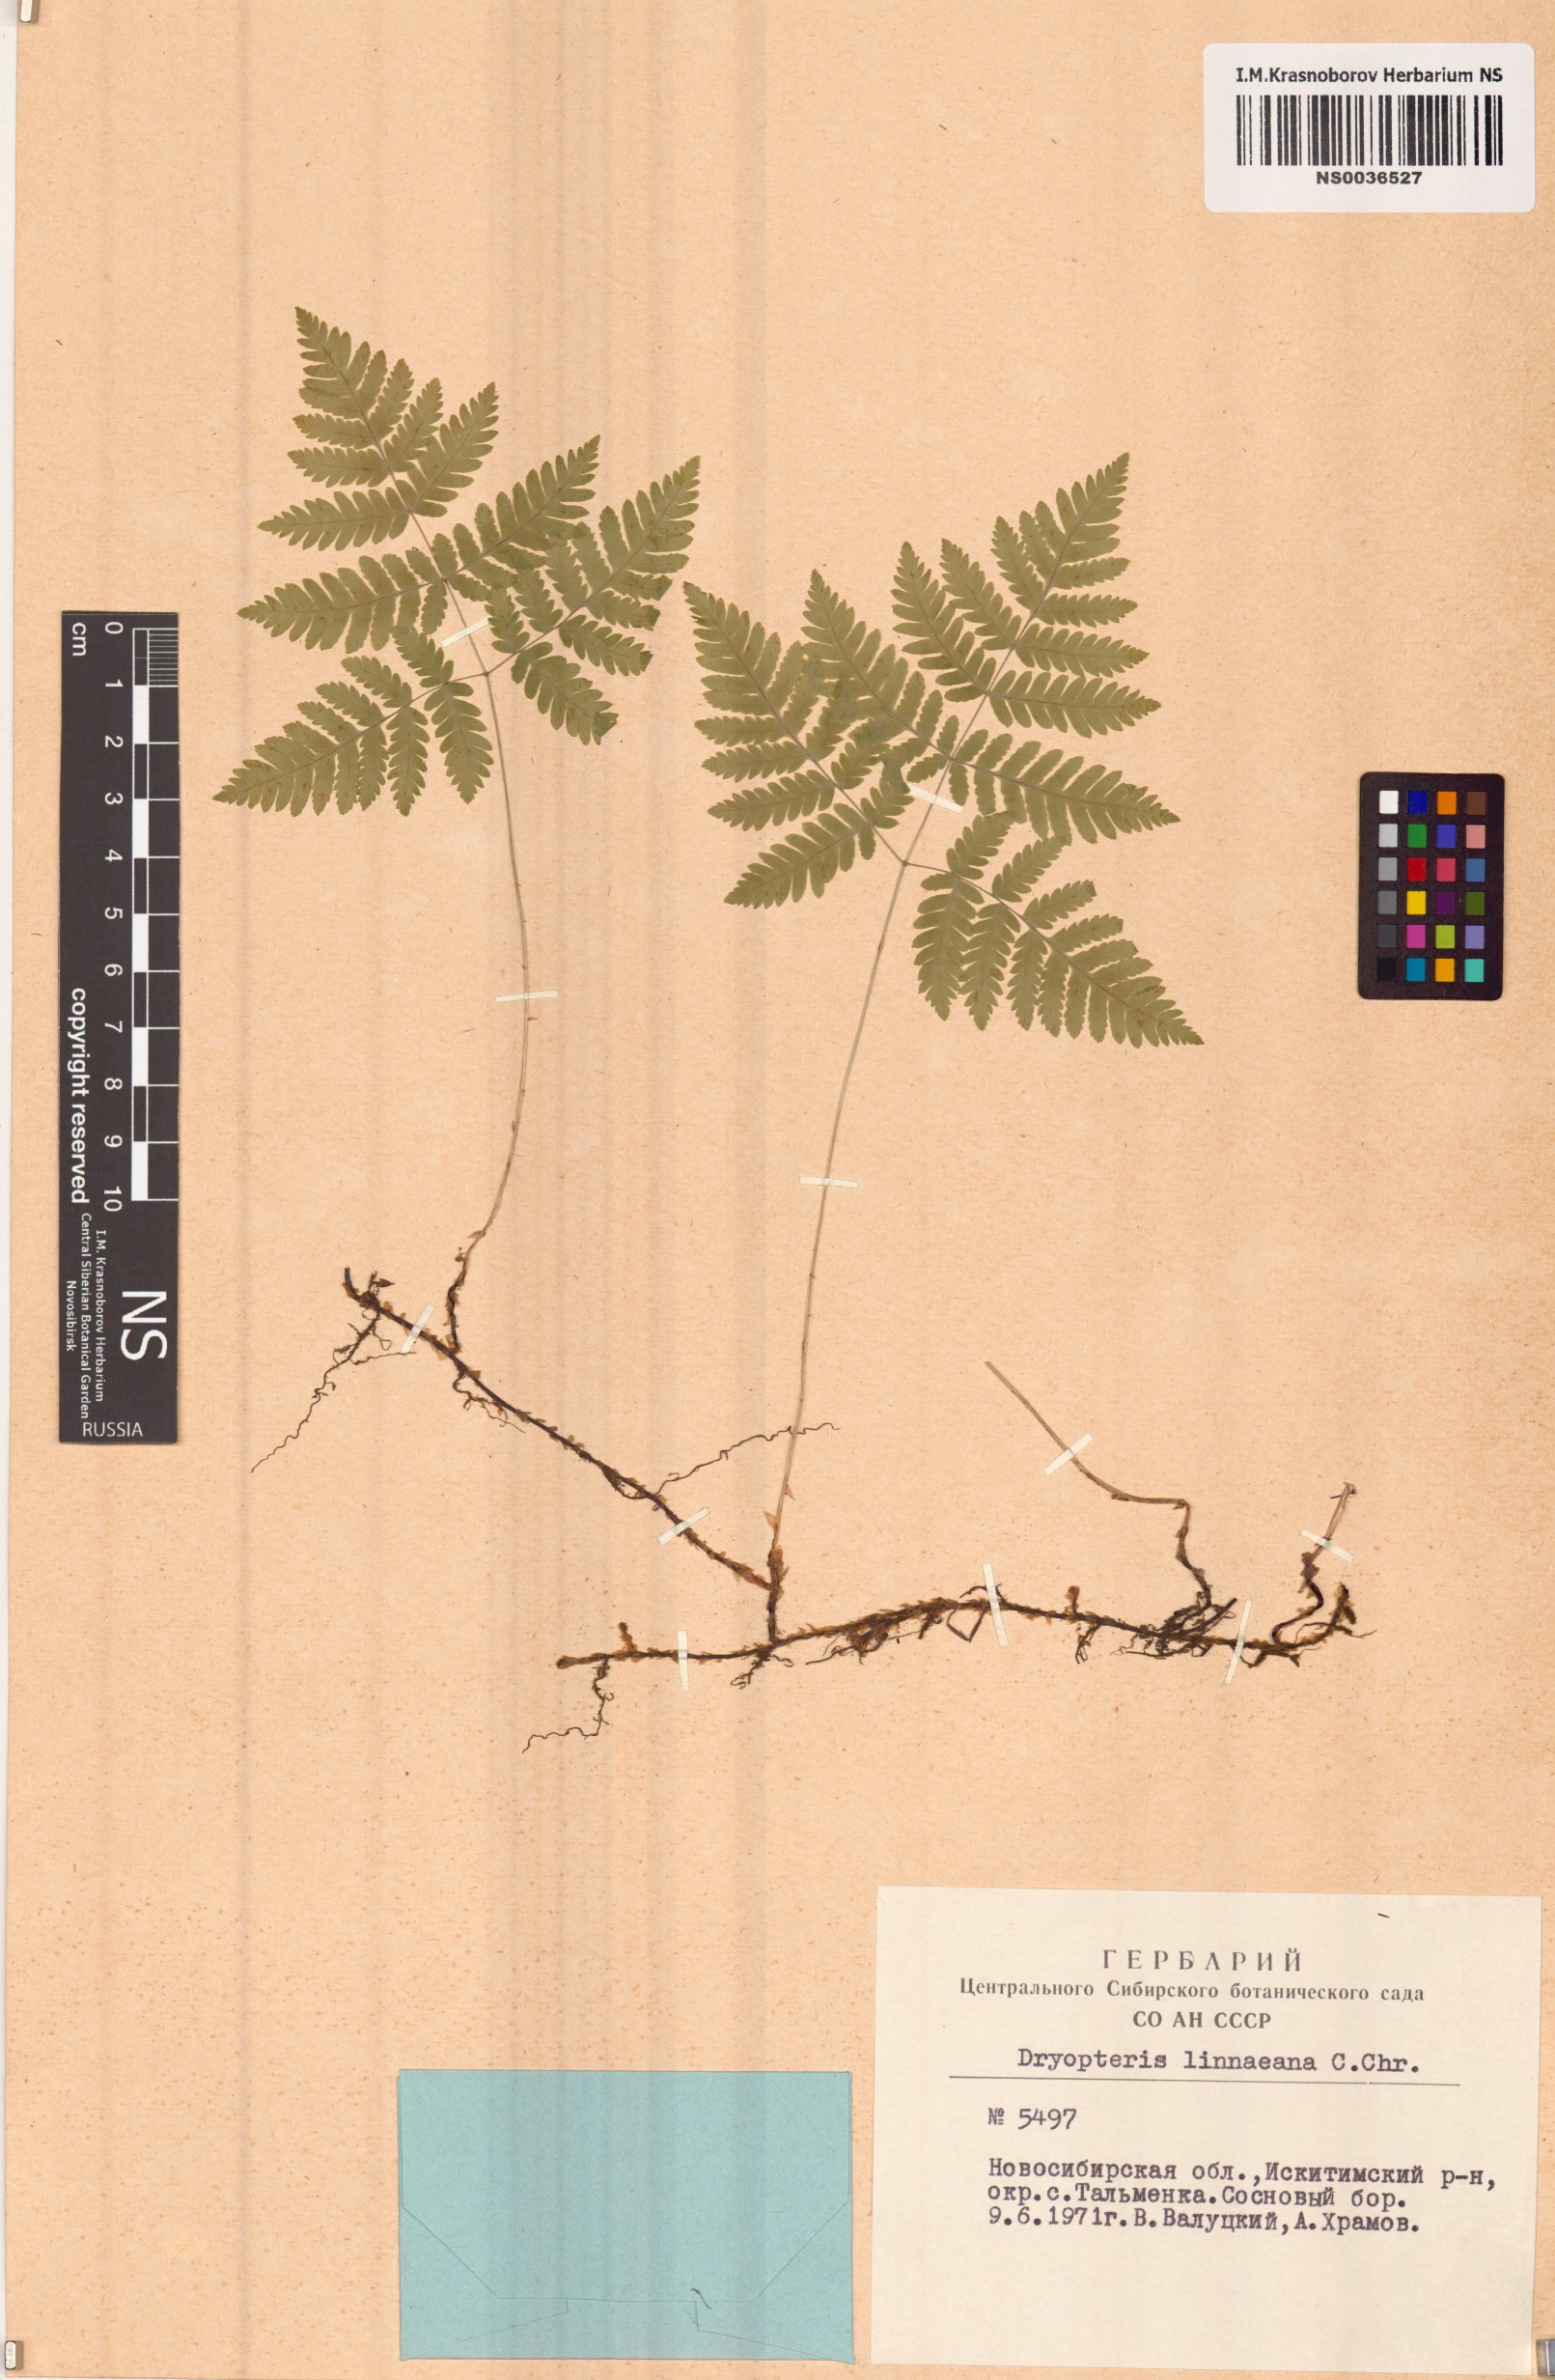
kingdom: Plantae
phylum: Tracheophyta
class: Polypodiopsida
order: Polypodiales
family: Cystopteridaceae
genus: Gymnocarpium
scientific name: Gymnocarpium dryopteris
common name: Oak fern
